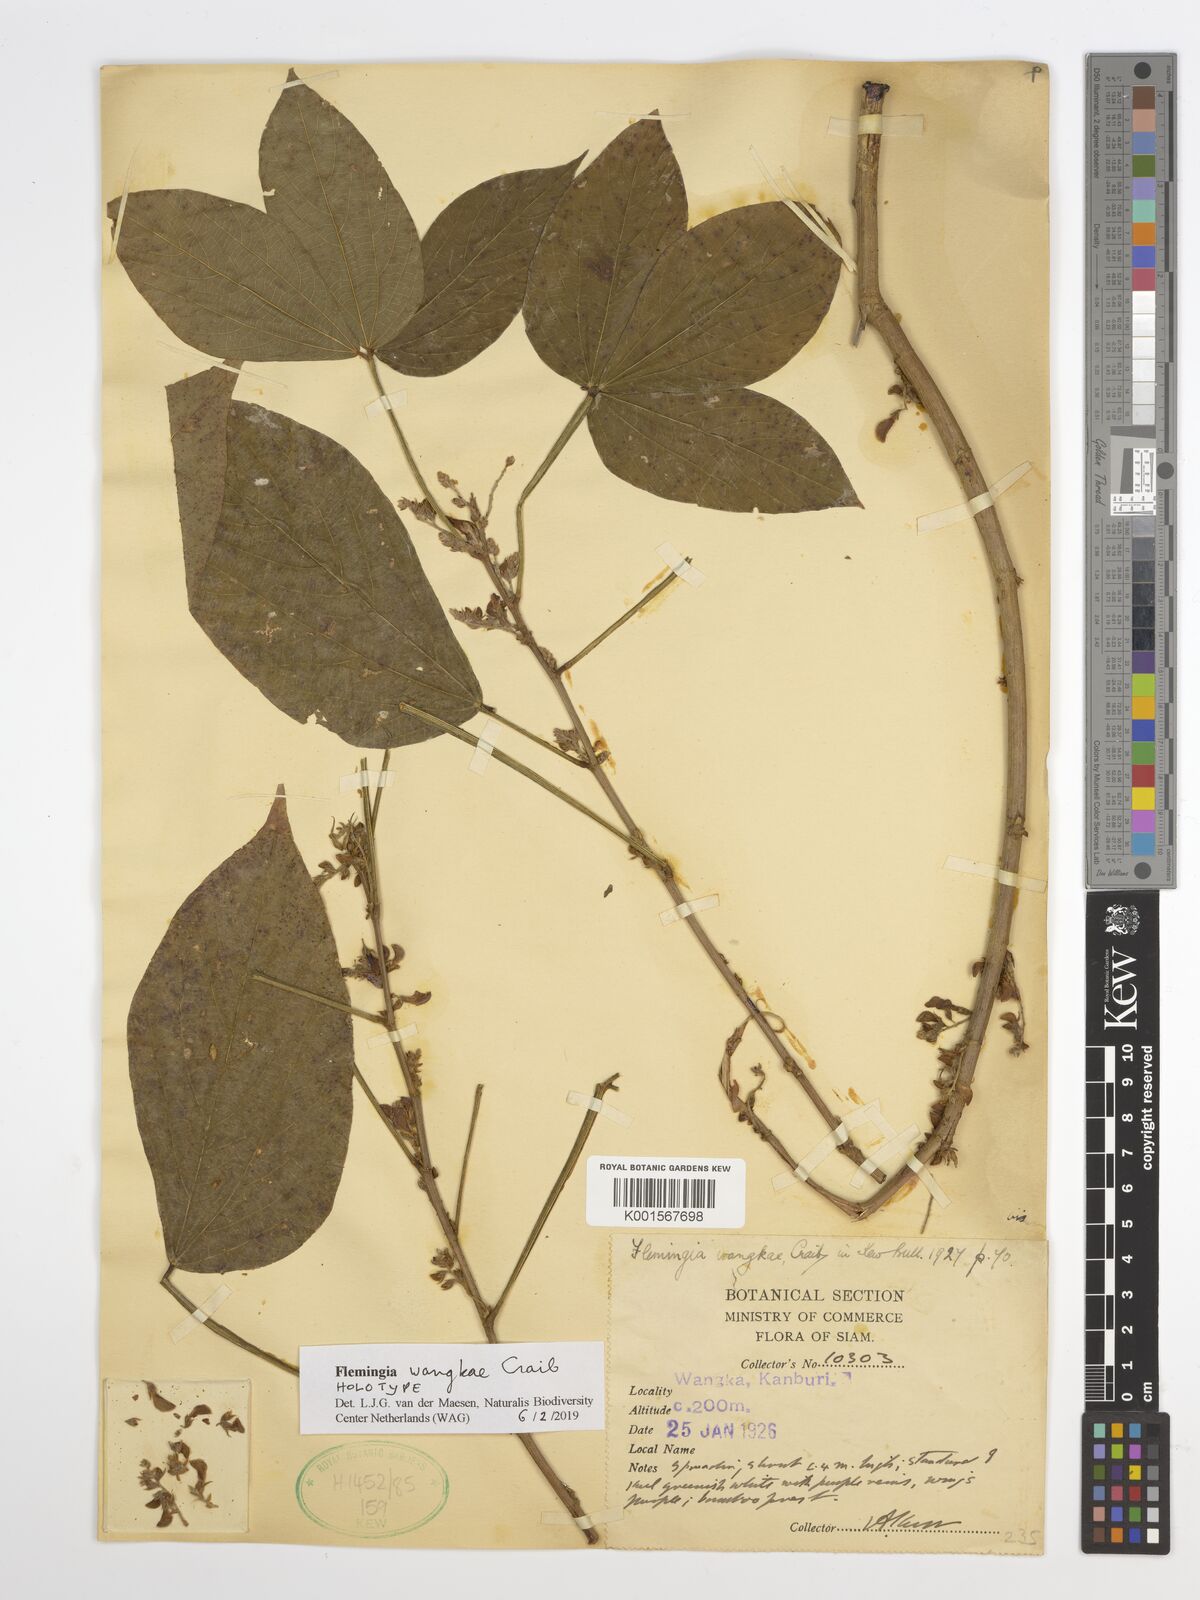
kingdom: Plantae
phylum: Tracheophyta
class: Magnoliopsida
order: Fabales
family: Fabaceae
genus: Flemingia
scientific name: Flemingia kerrii
